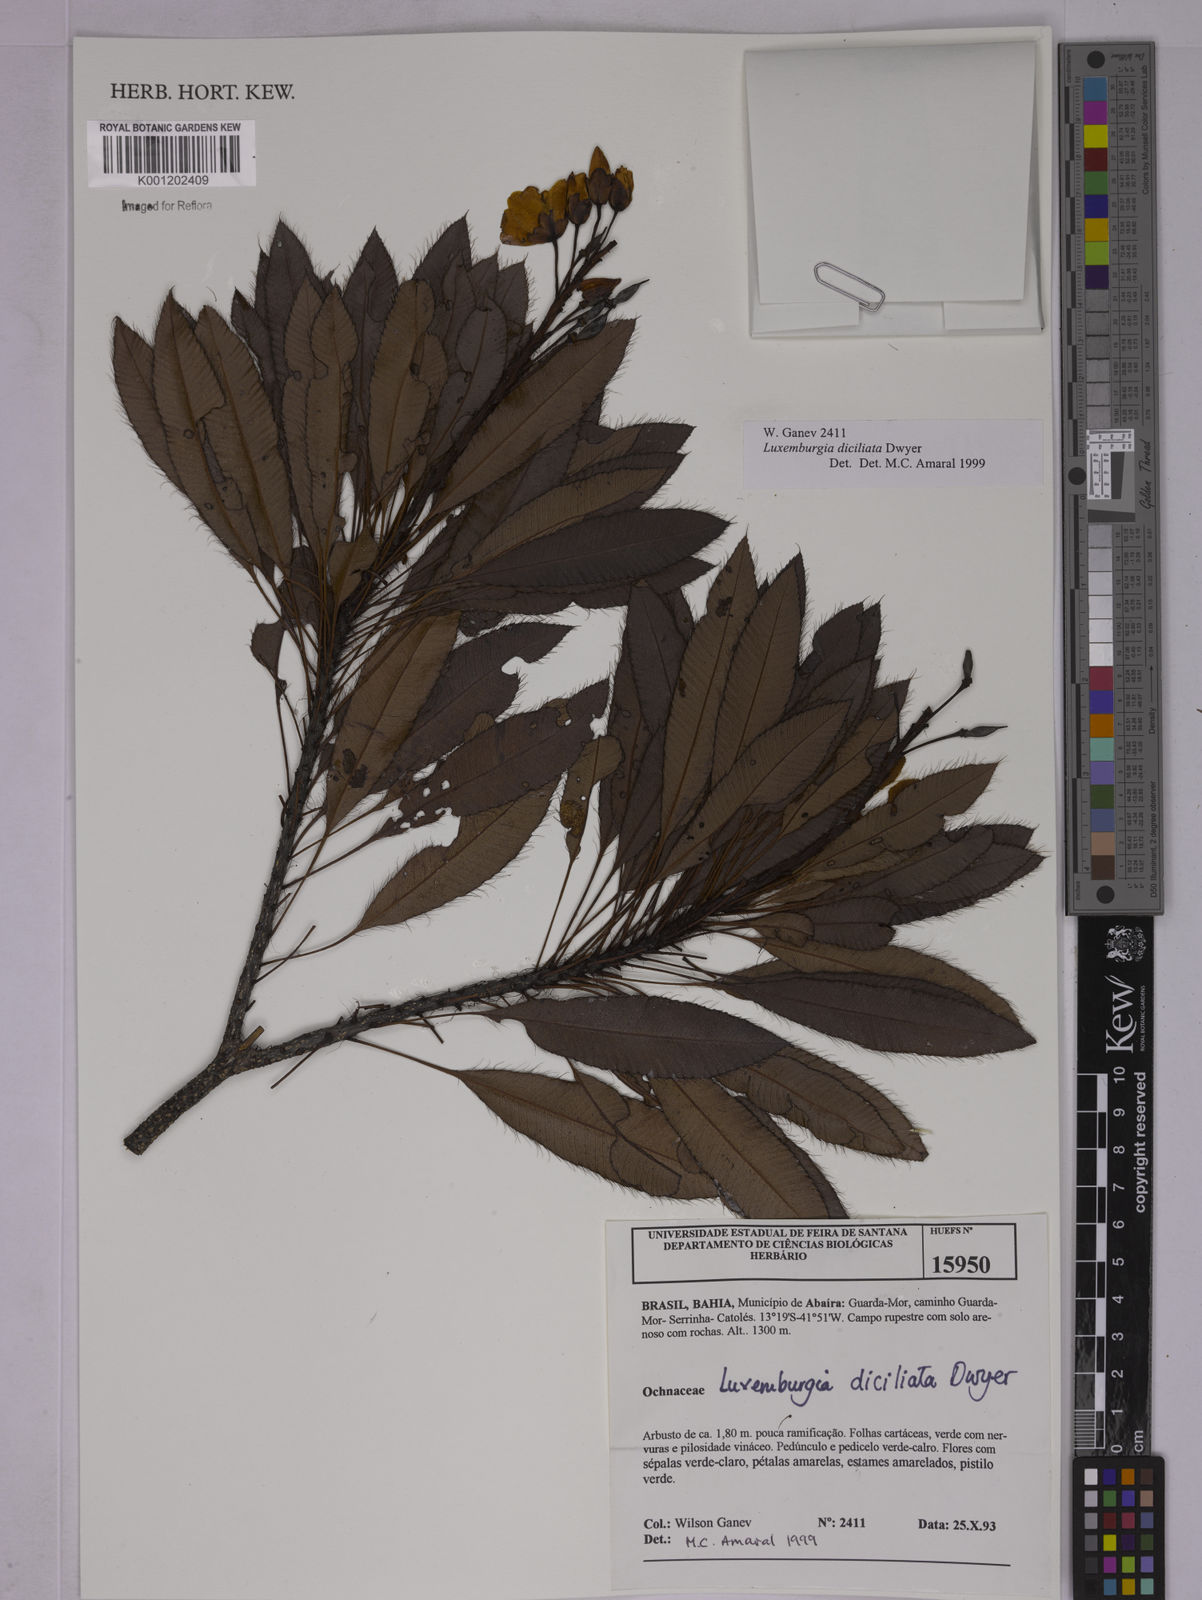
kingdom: Plantae
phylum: Tracheophyta
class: Magnoliopsida
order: Malpighiales
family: Ochnaceae
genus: Luxemburgia
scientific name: Luxemburgia diciliata
